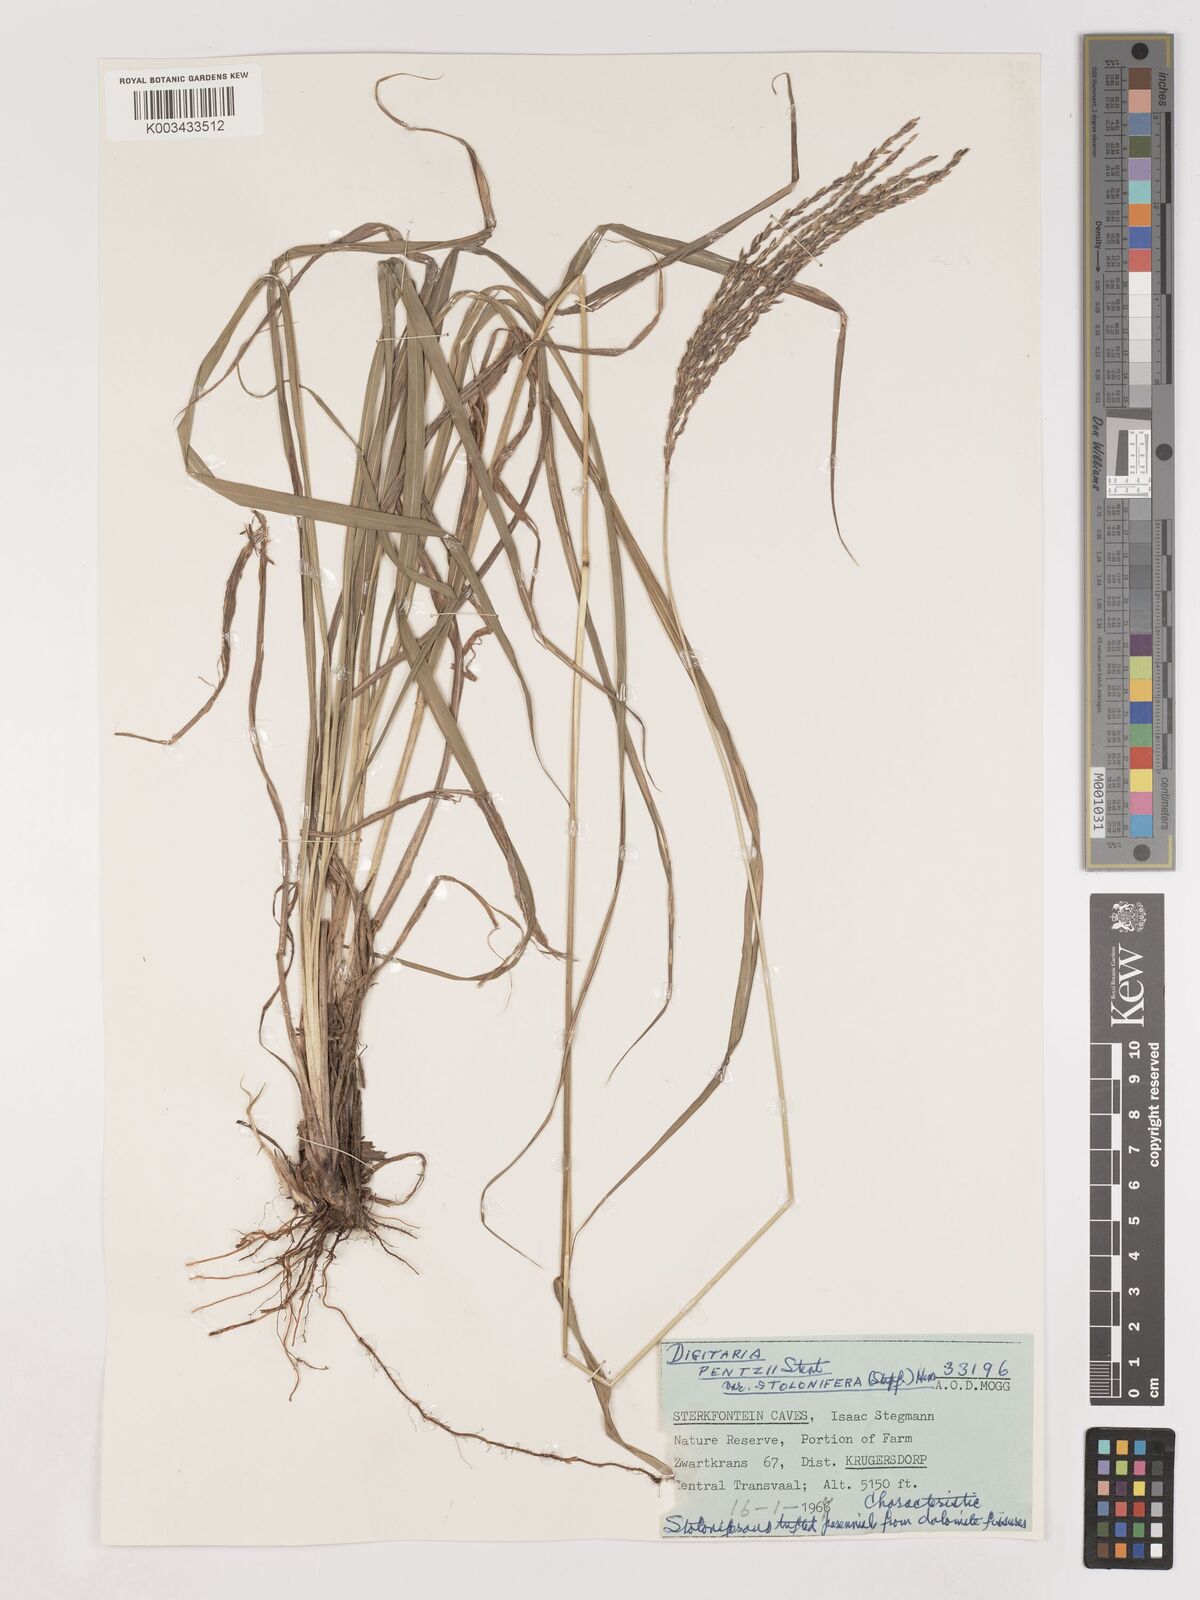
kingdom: Plantae
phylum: Tracheophyta
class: Liliopsida
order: Poales
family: Poaceae
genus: Digitaria
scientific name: Digitaria eriantha
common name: Digitgrass
